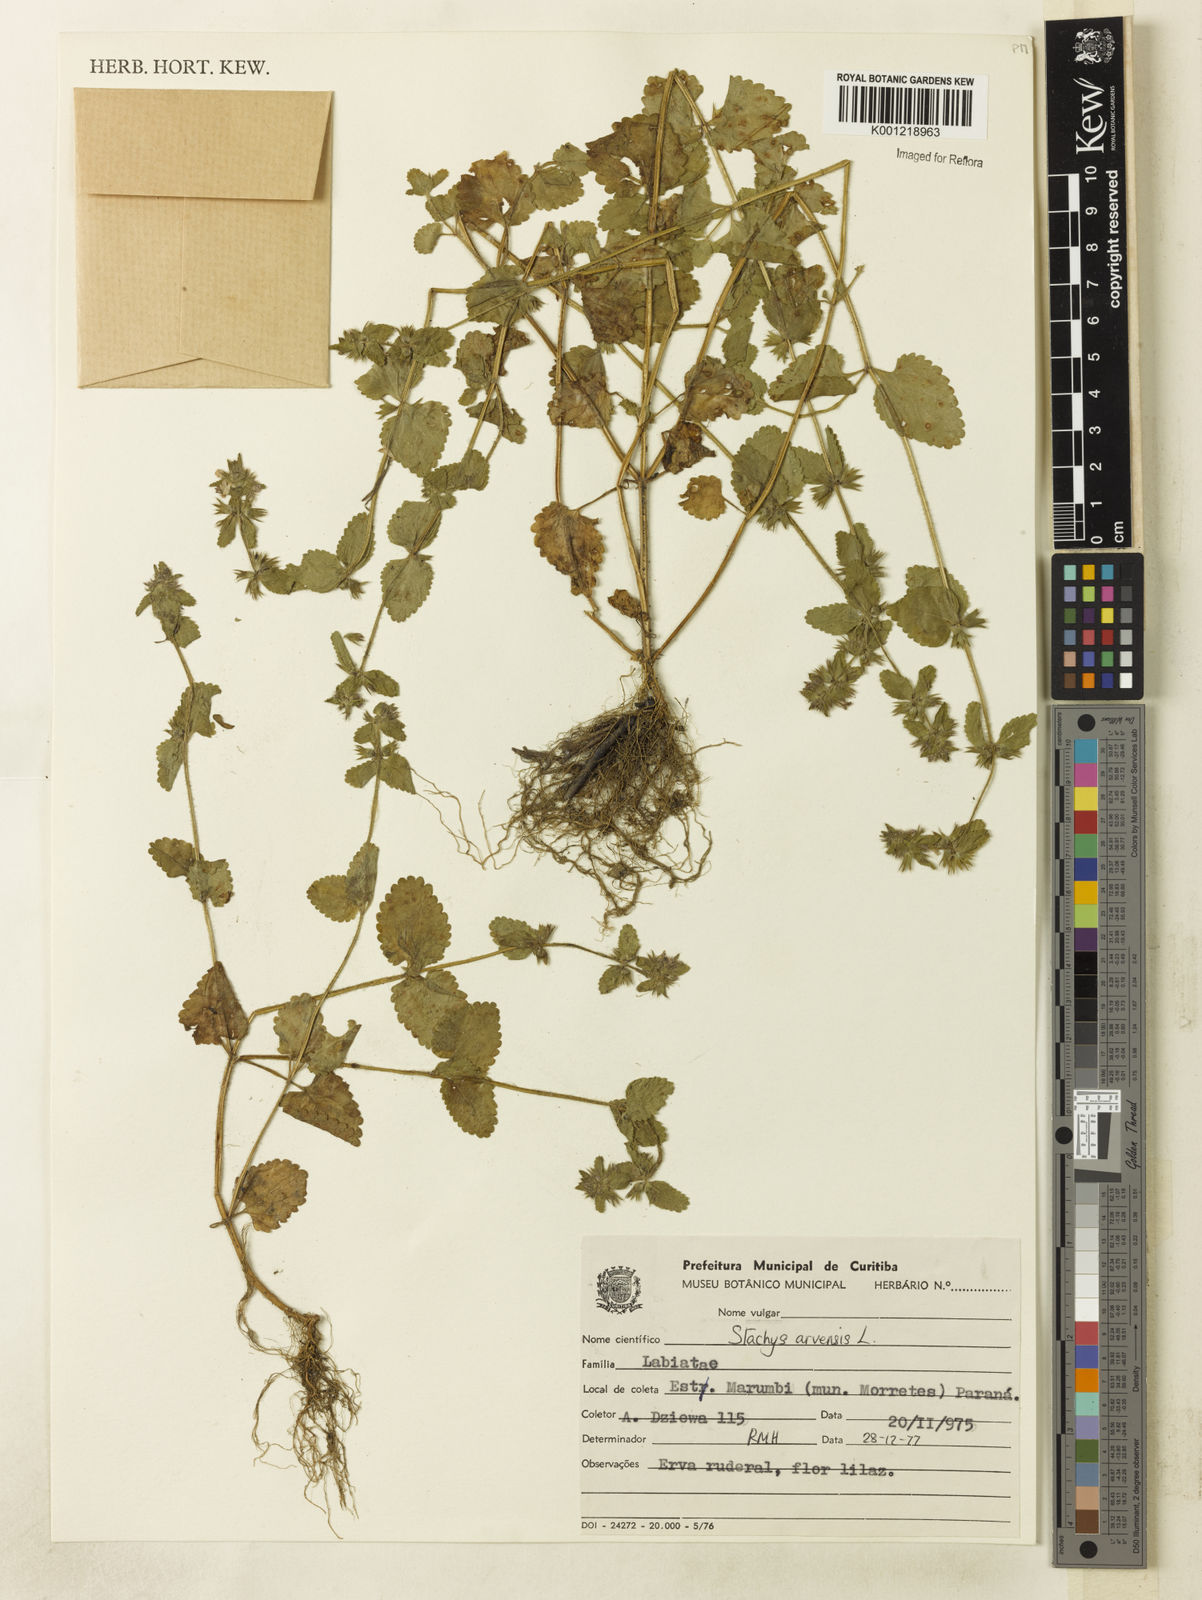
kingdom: Plantae
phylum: Tracheophyta
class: Magnoliopsida
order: Lamiales
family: Lamiaceae
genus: Stachys
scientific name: Stachys arvensis
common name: Field woundwort
